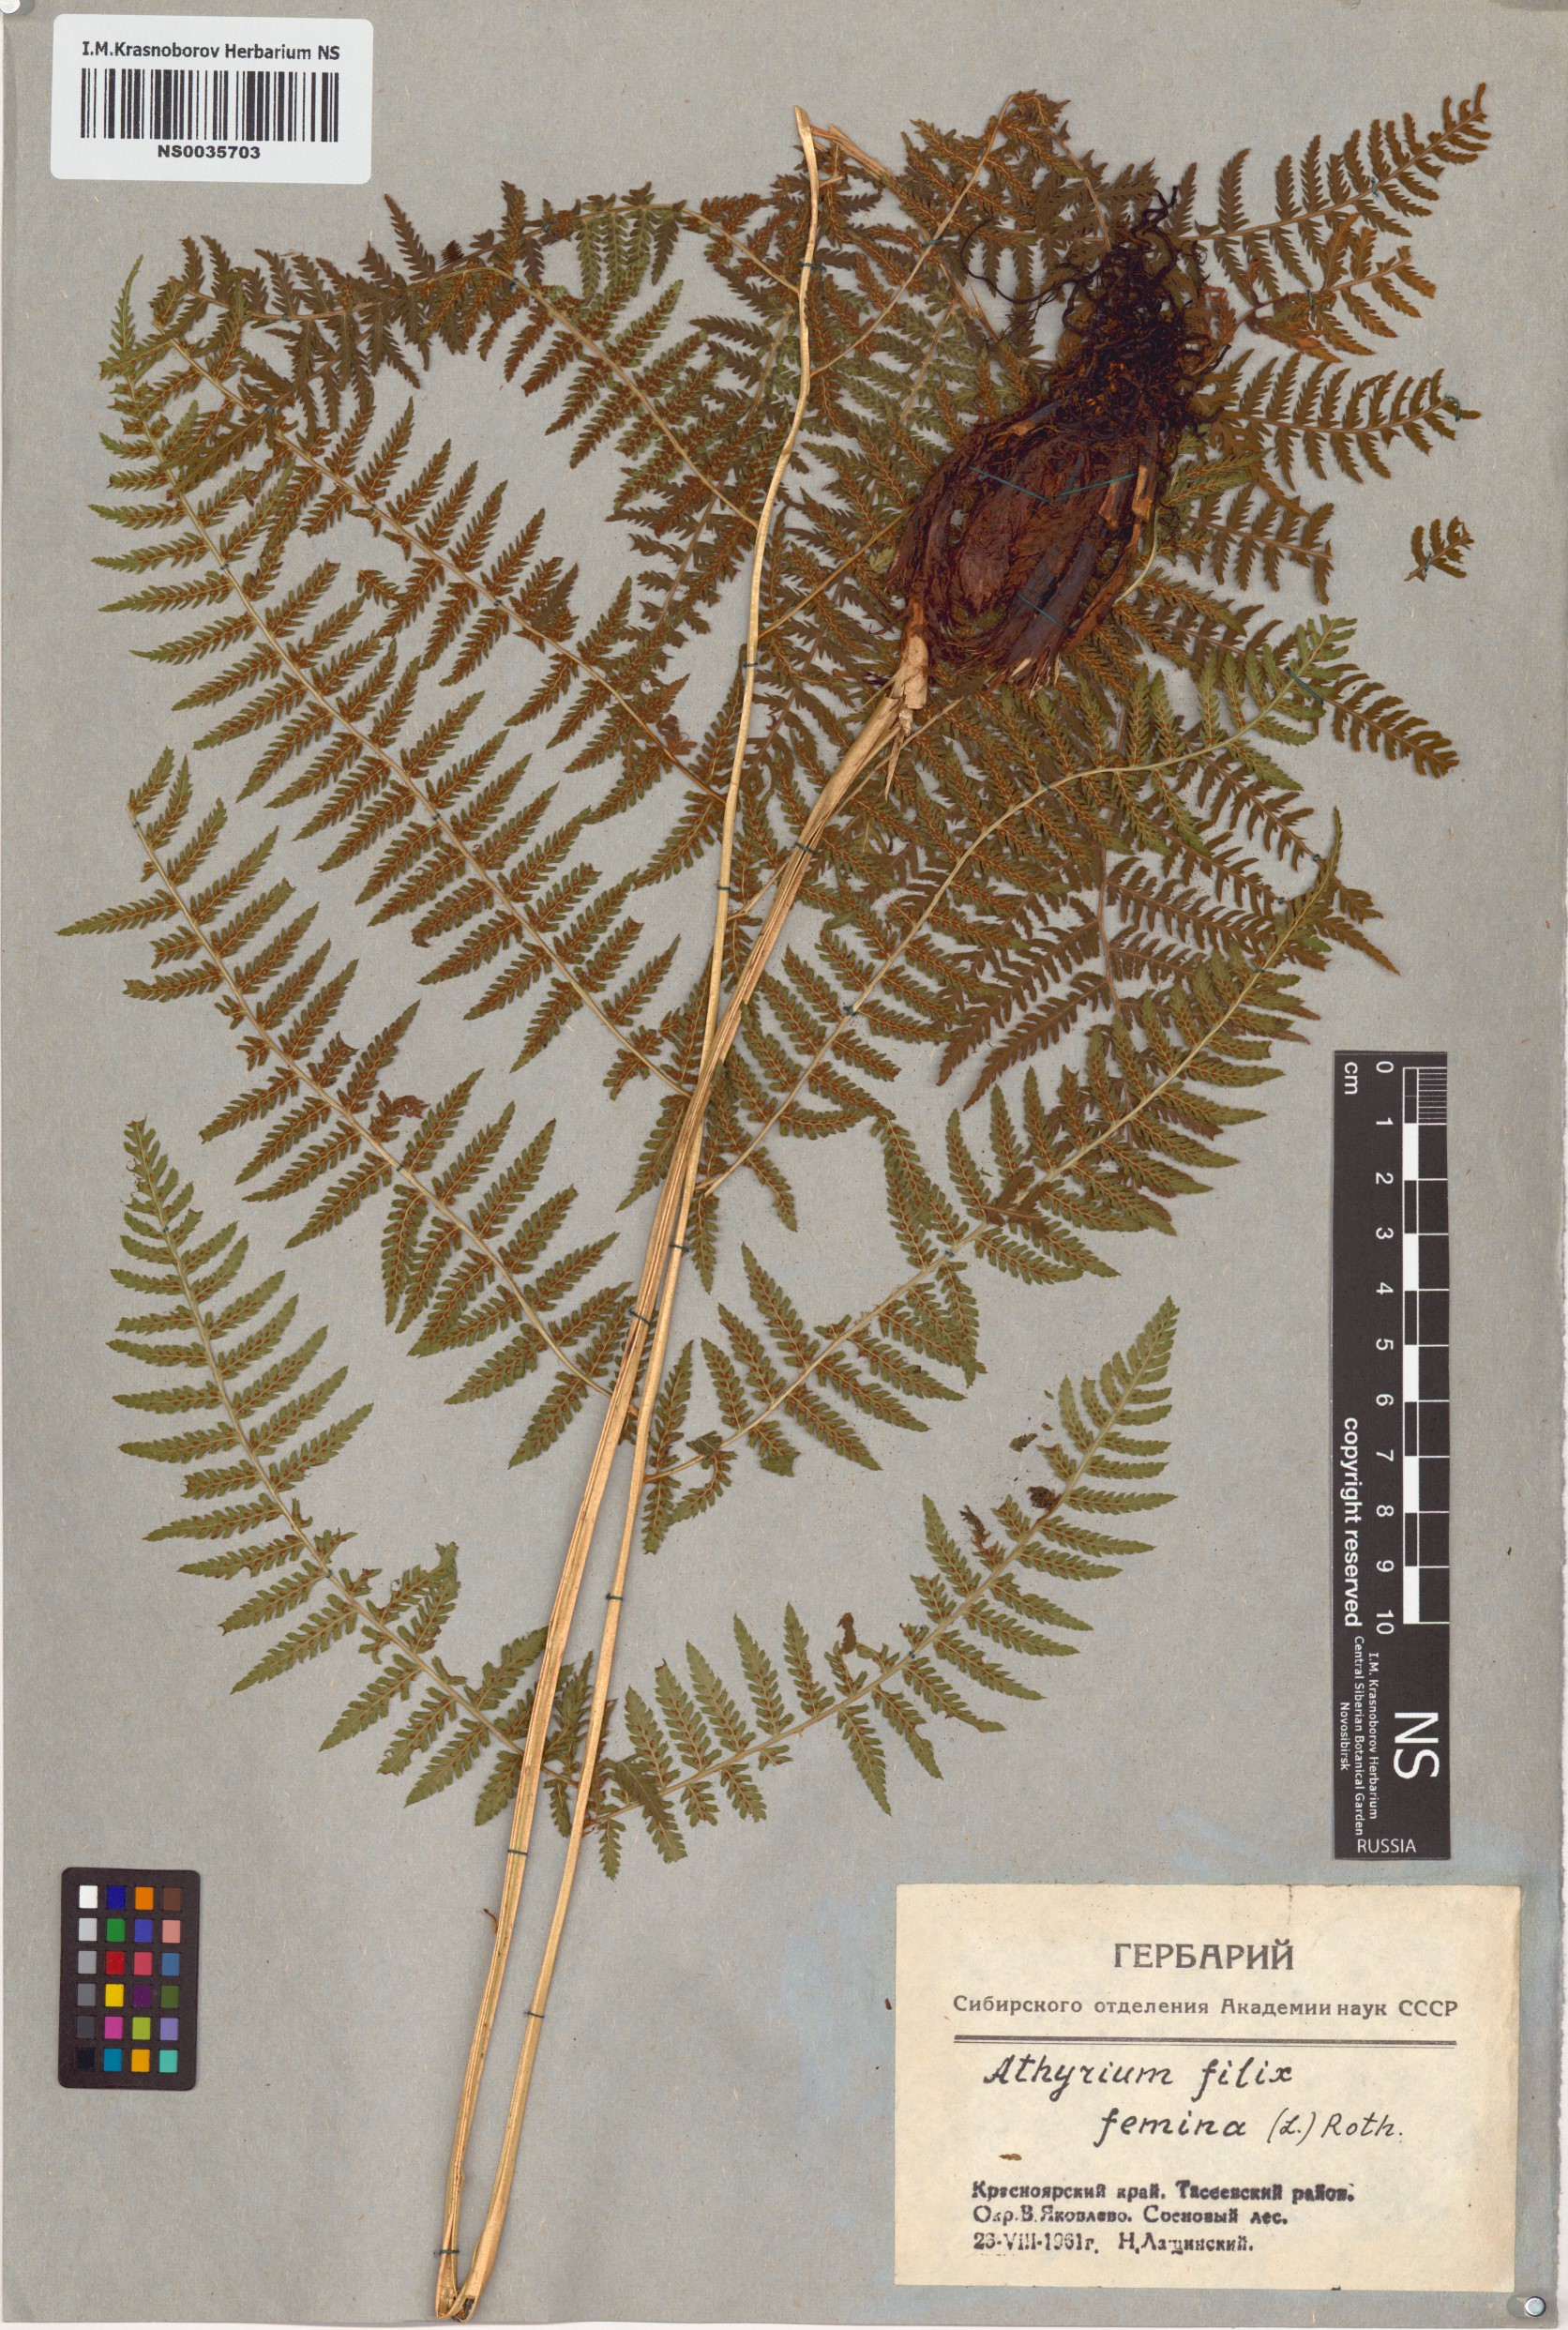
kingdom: Plantae
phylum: Tracheophyta
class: Polypodiopsida
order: Polypodiales
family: Athyriaceae
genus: Athyrium
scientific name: Athyrium filix-femina
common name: Lady fern
